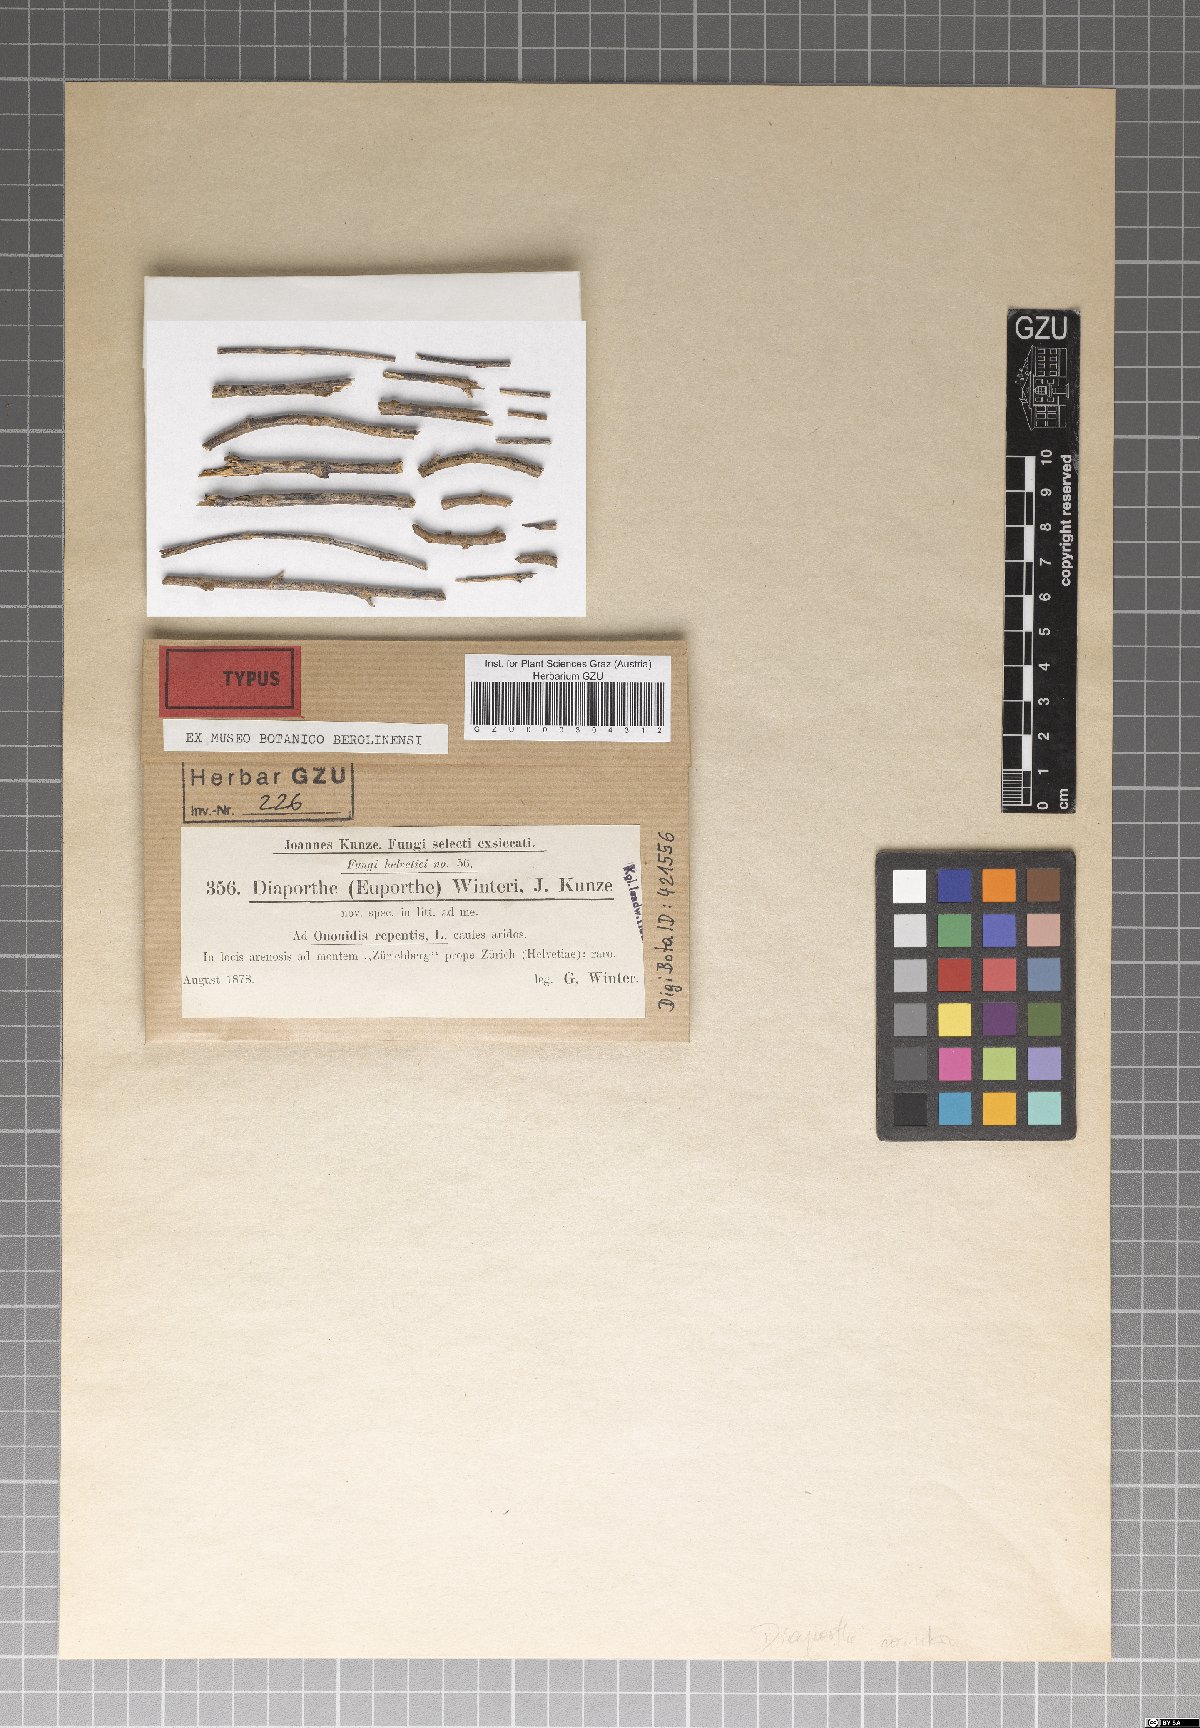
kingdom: Fungi
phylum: Ascomycota
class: Sordariomycetes
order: Diaporthales
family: Valsaceae
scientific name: Valsaceae
